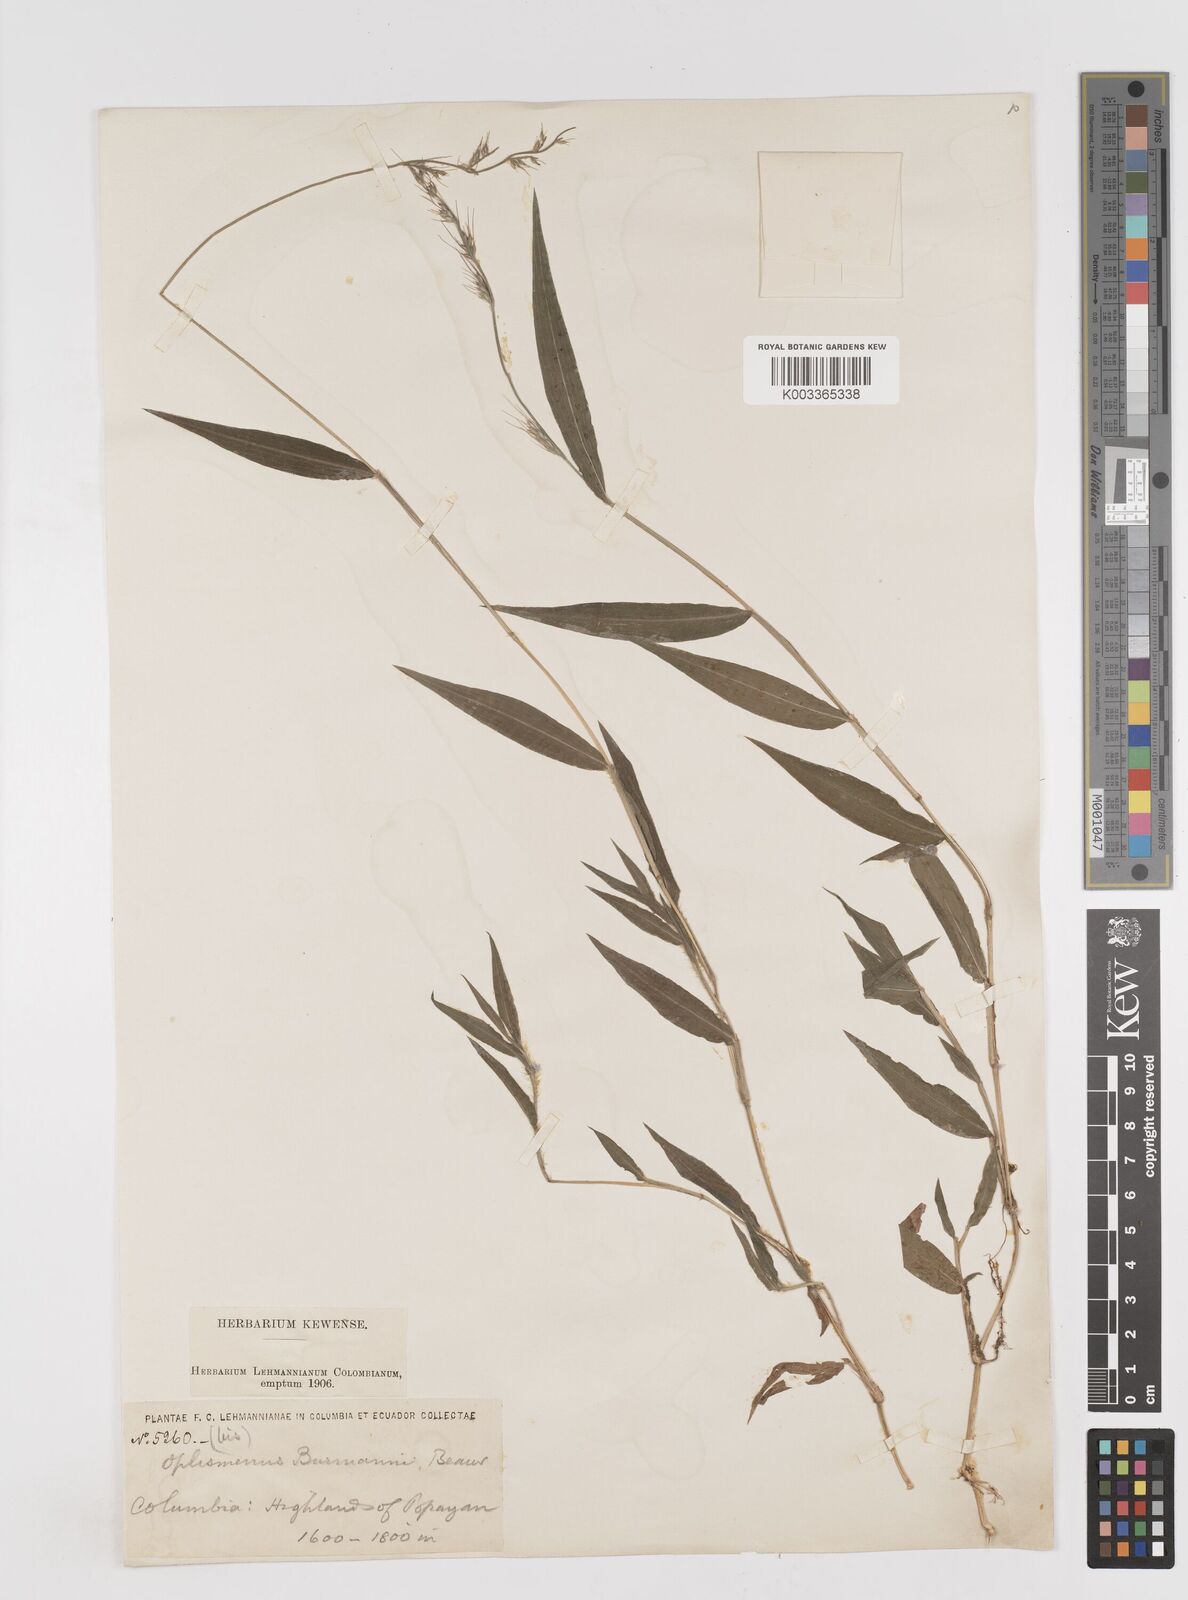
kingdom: Plantae
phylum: Tracheophyta
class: Liliopsida
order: Poales
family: Poaceae
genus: Oplismenus
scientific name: Oplismenus burmanni
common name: Burmann's basketgrass
